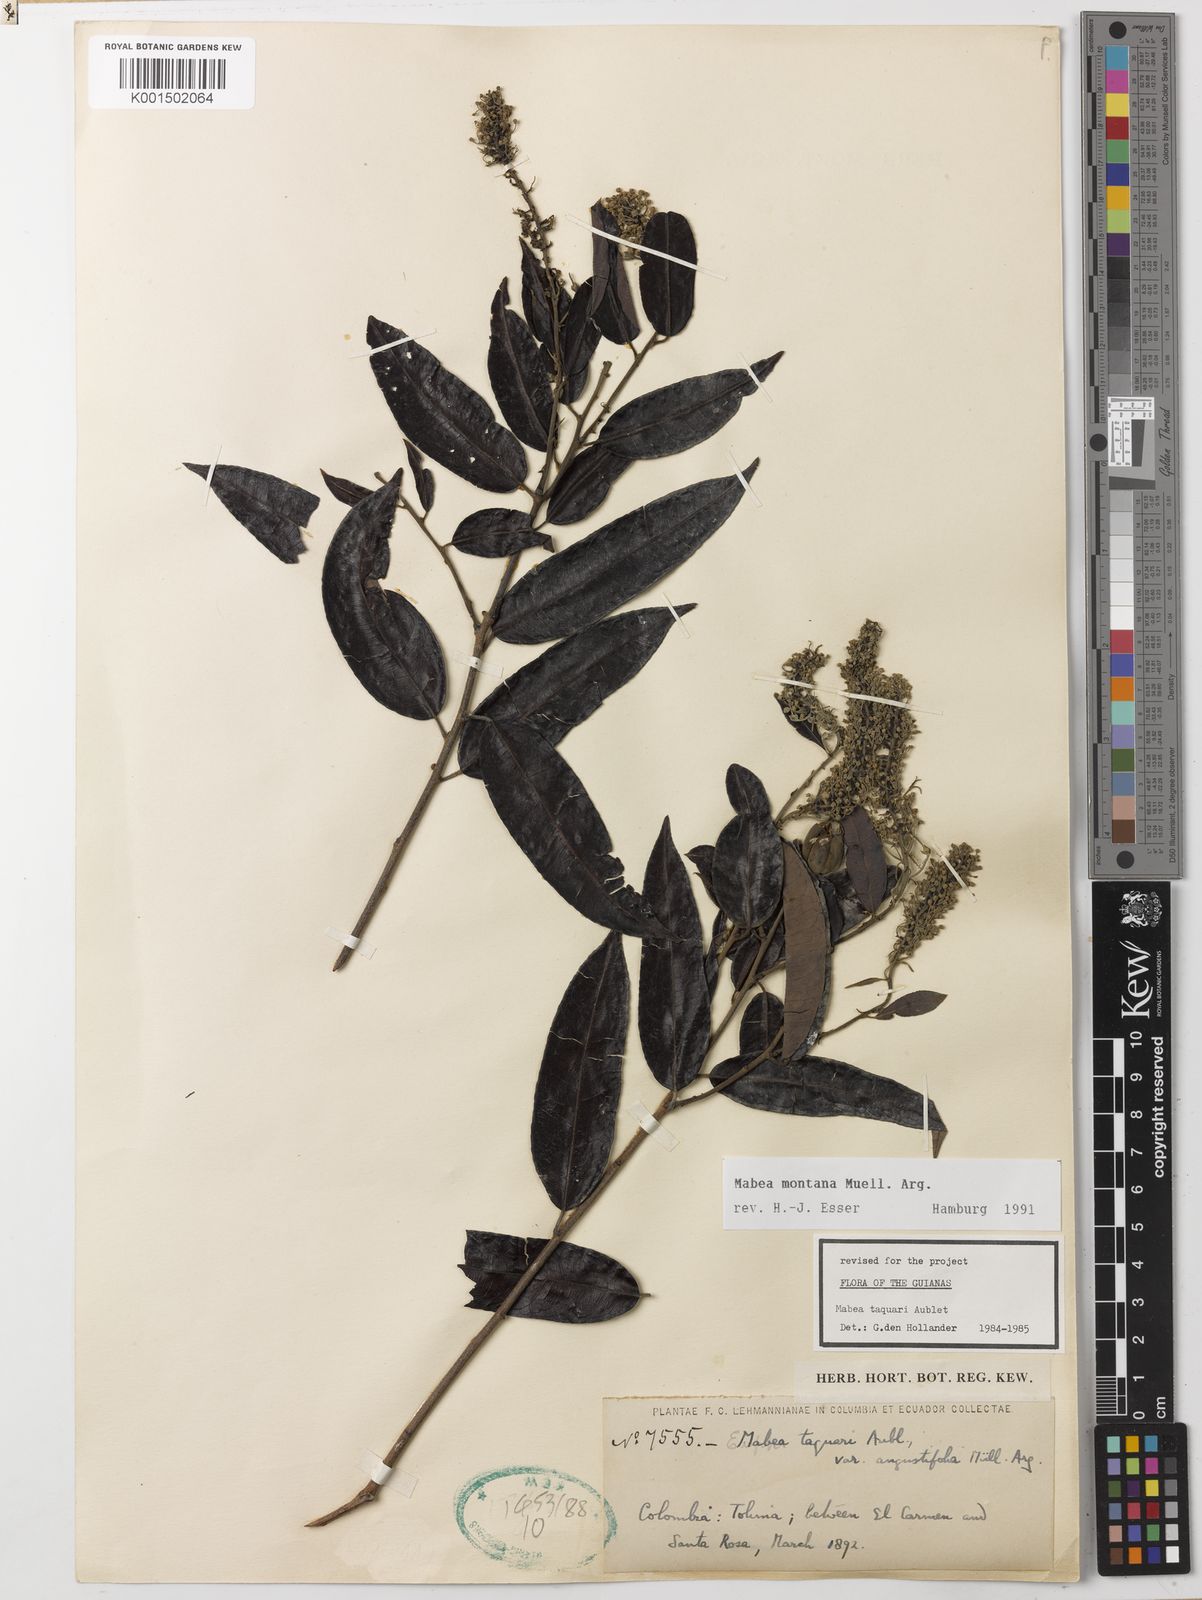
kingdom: Plantae
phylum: Tracheophyta
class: Magnoliopsida
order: Malpighiales
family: Euphorbiaceae
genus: Mabea
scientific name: Mabea montana
